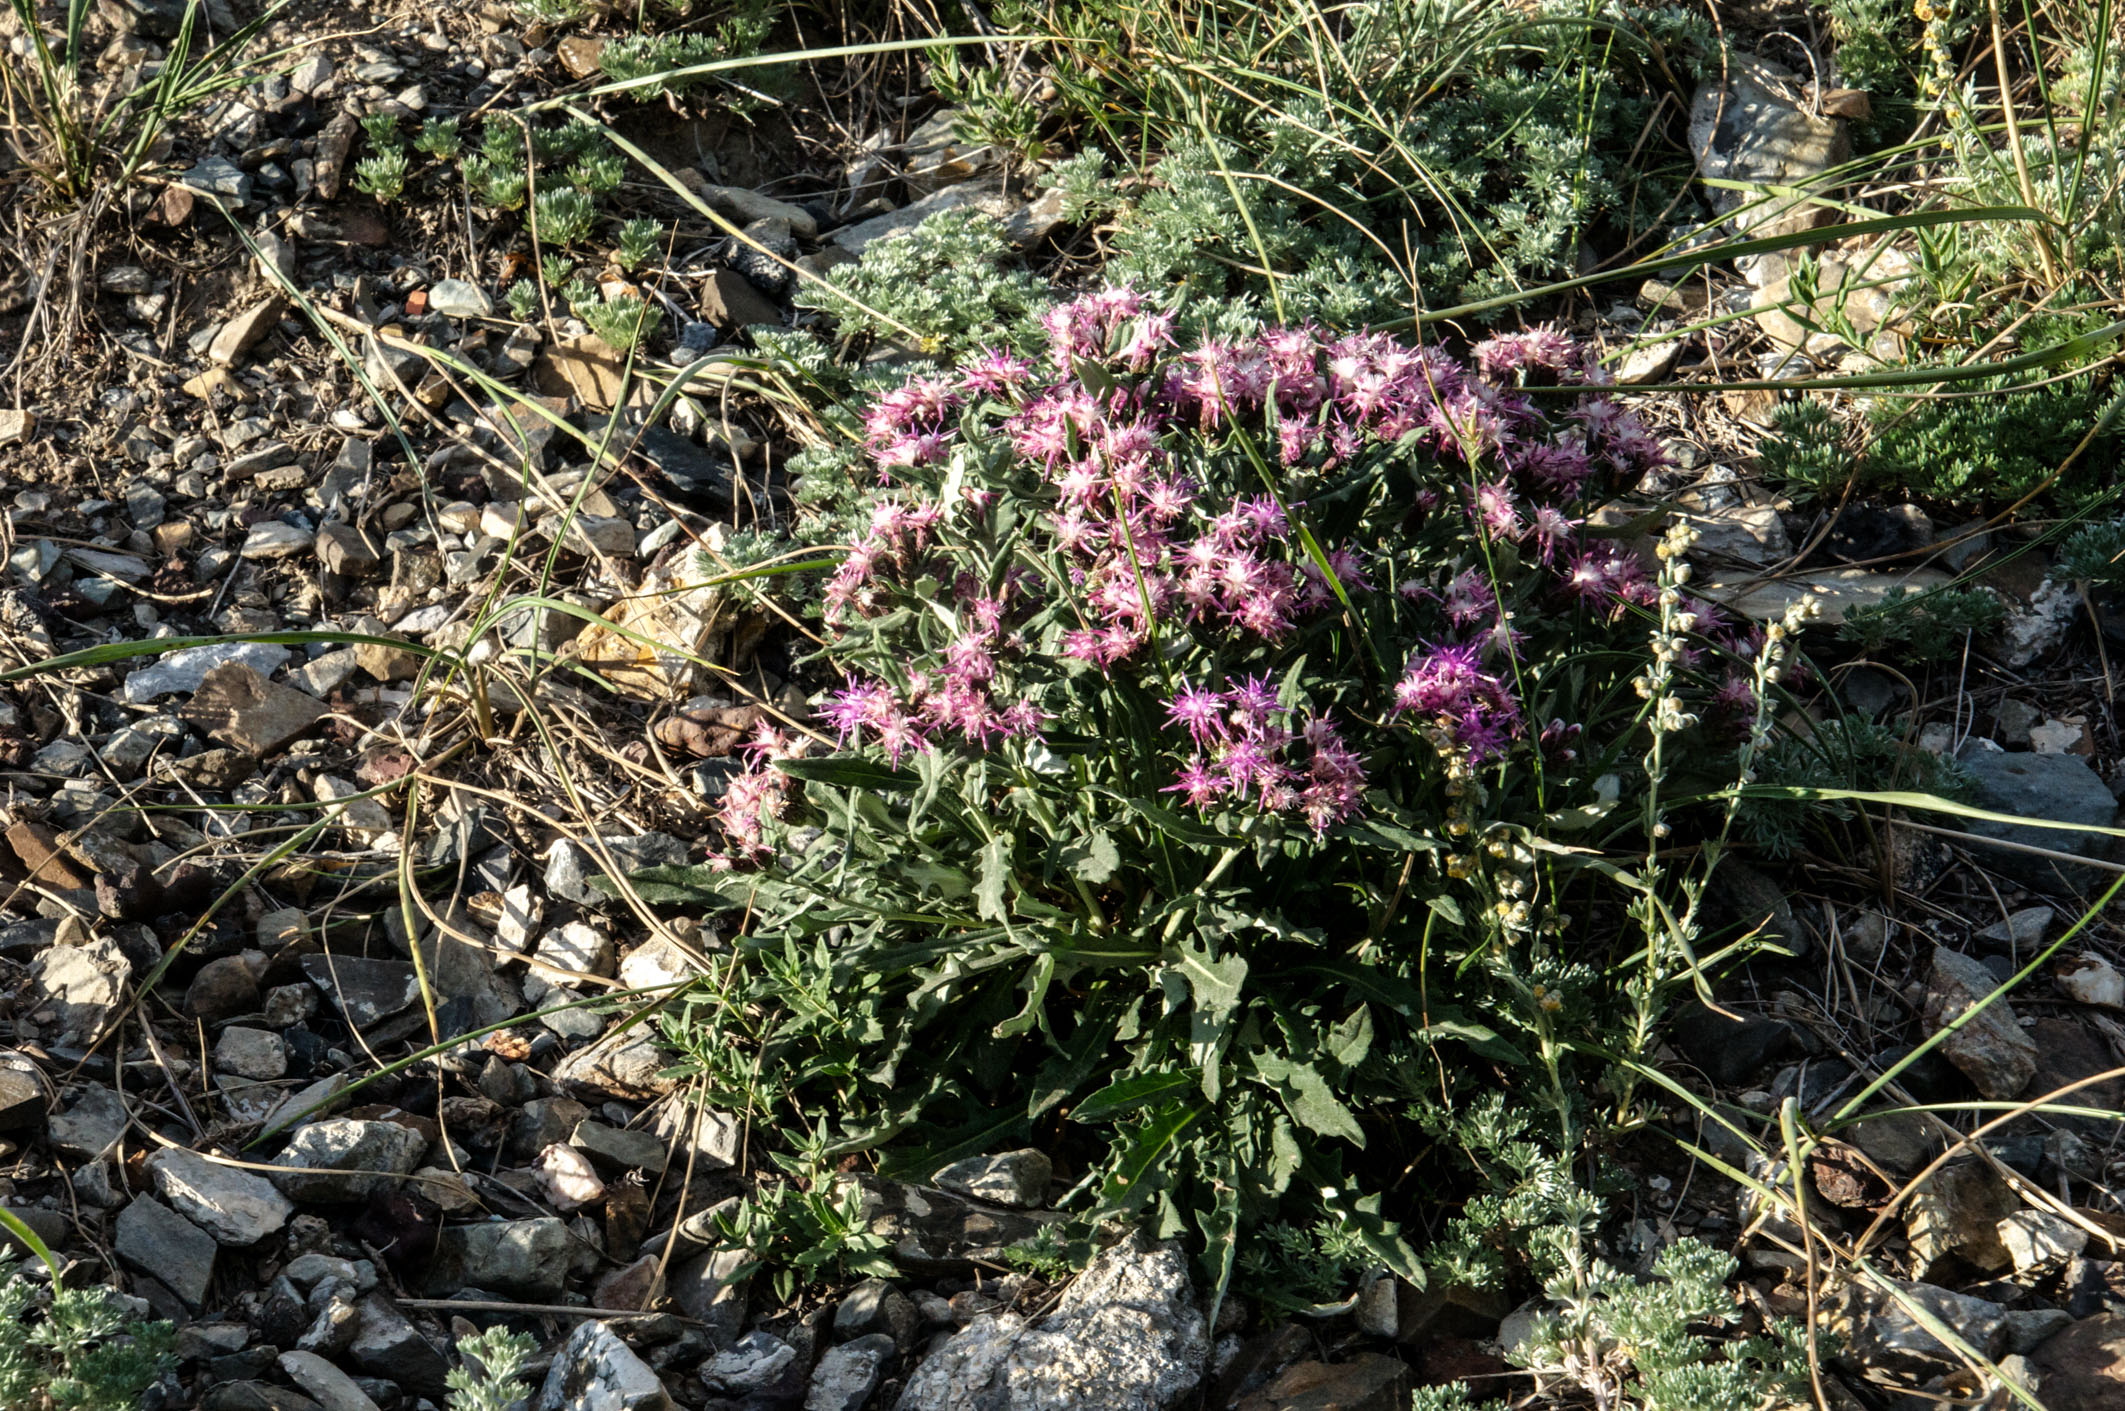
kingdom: Plantae
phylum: Tracheophyta
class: Magnoliopsida
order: Asterales
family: Asteraceae
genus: Saussurea
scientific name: Saussurea pricei
